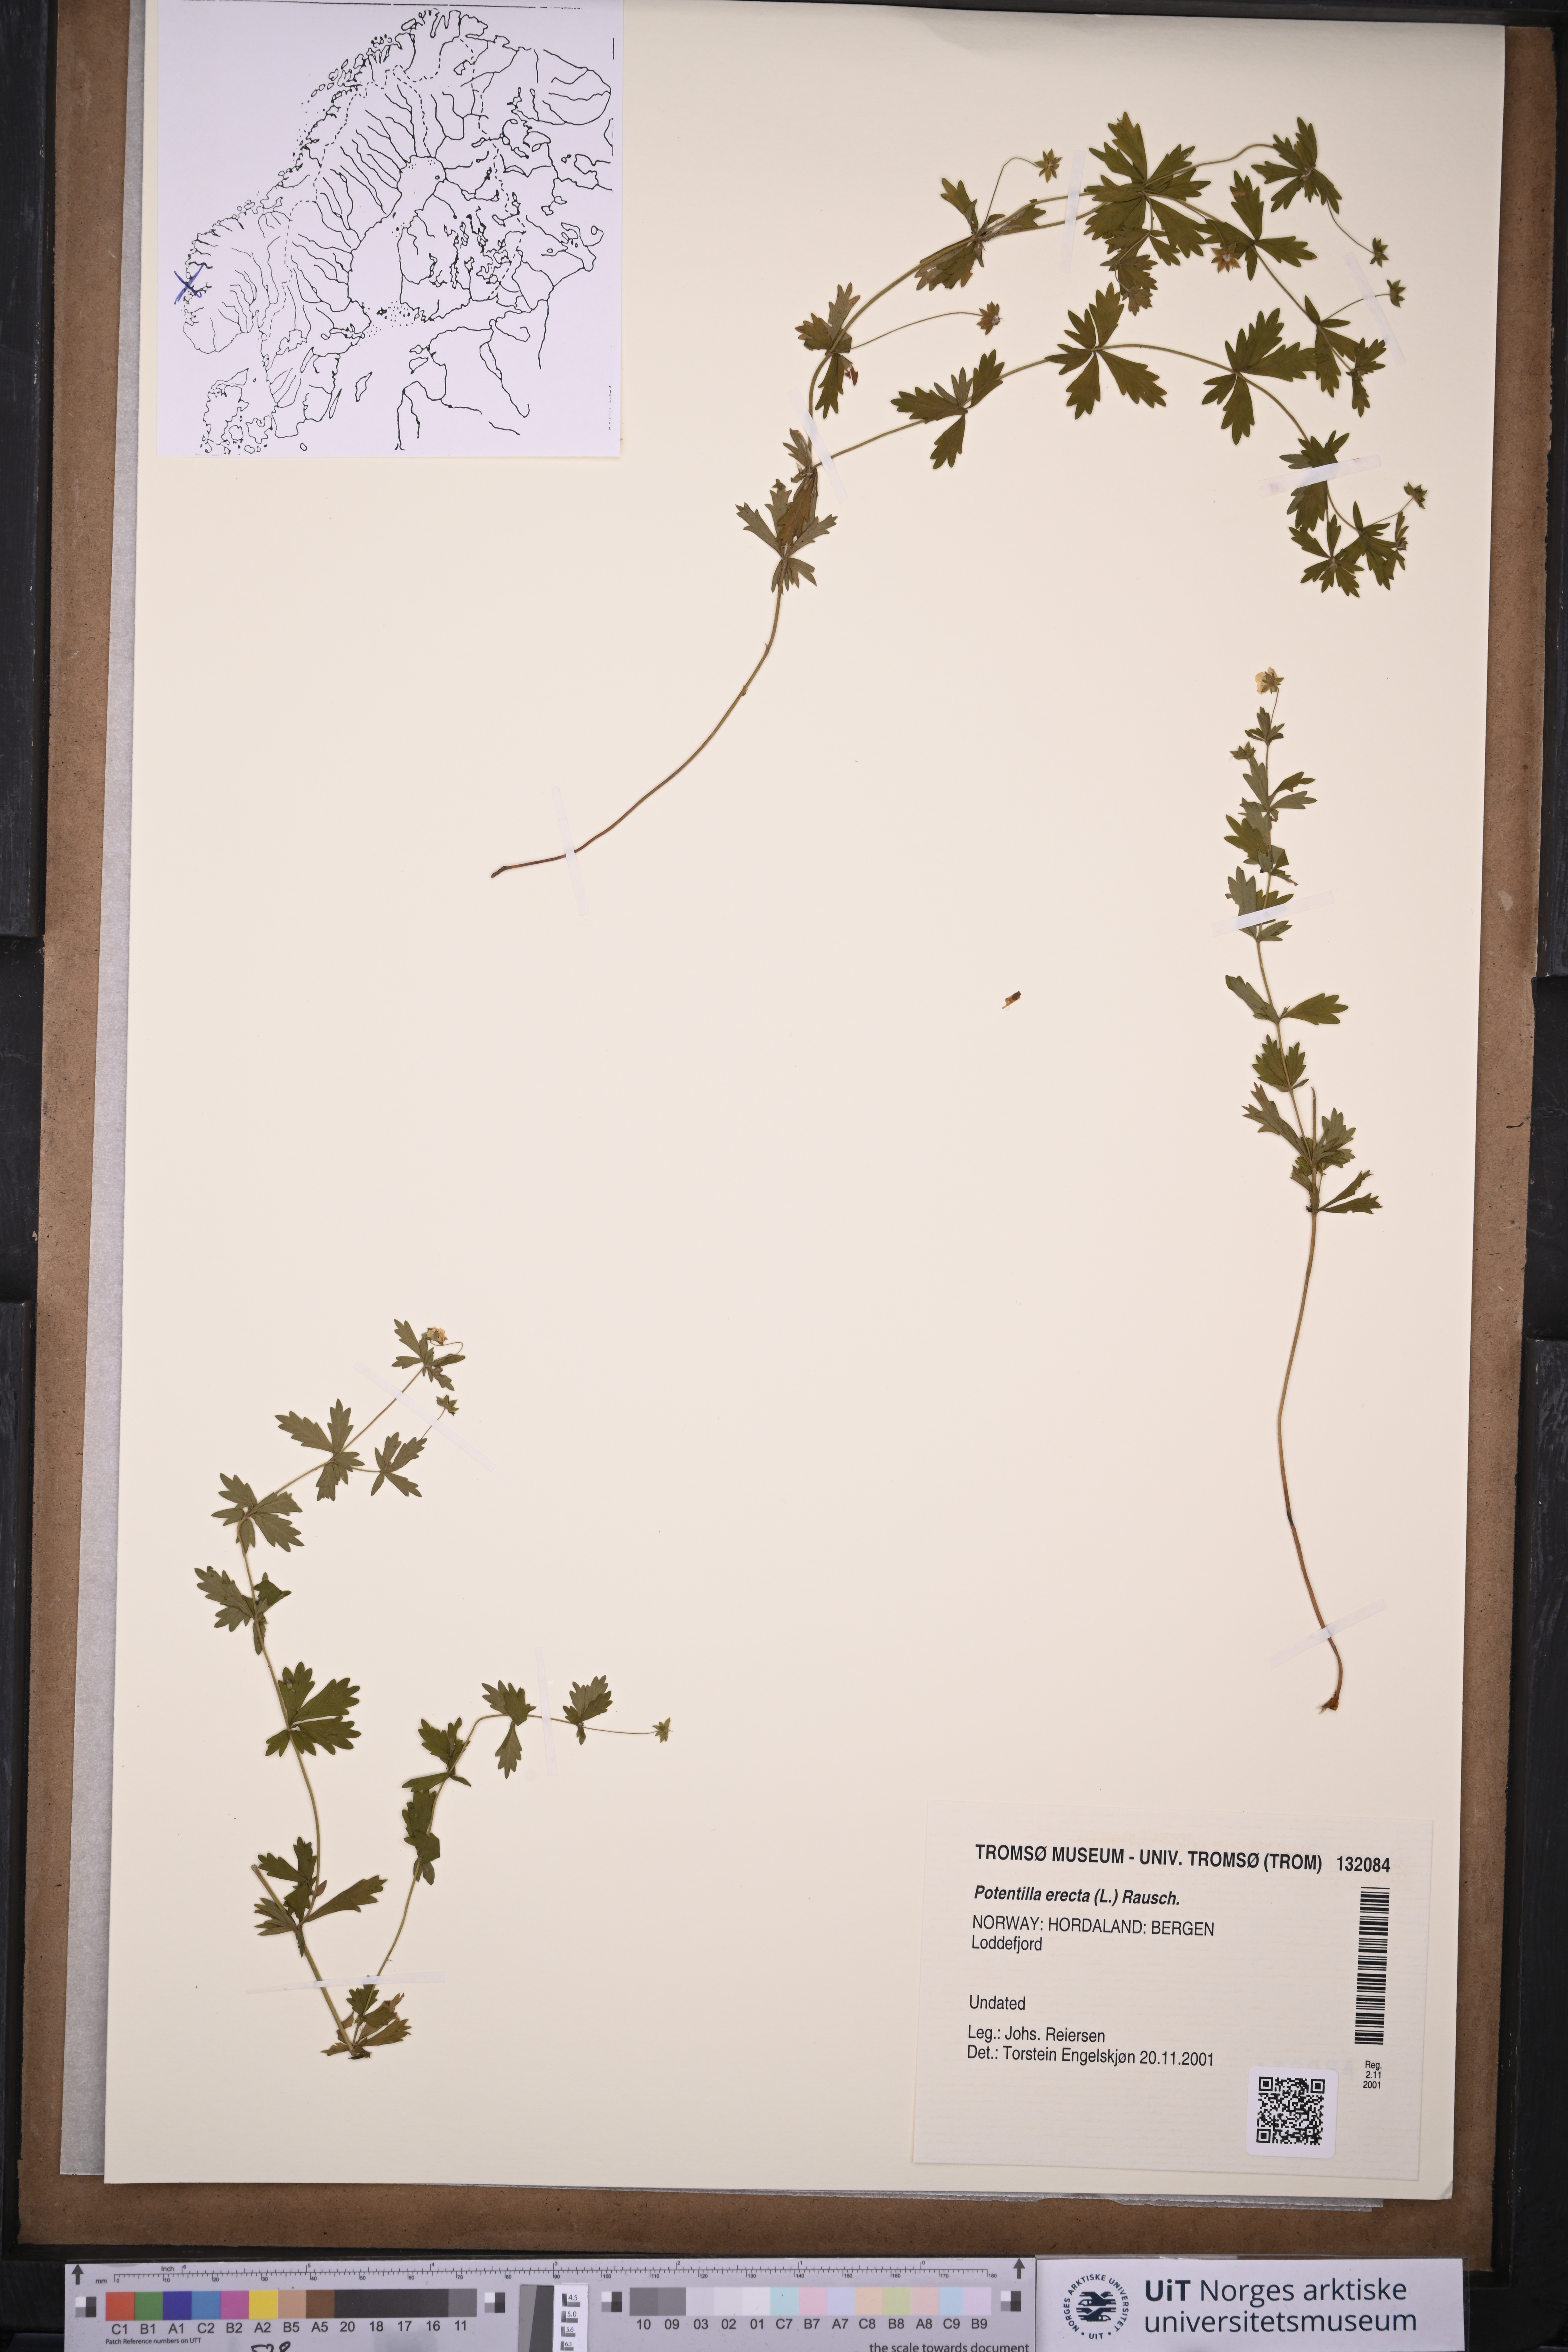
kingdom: Plantae
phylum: Tracheophyta
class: Magnoliopsida
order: Rosales
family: Rosaceae
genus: Potentilla
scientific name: Potentilla erecta
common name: Tormentil
